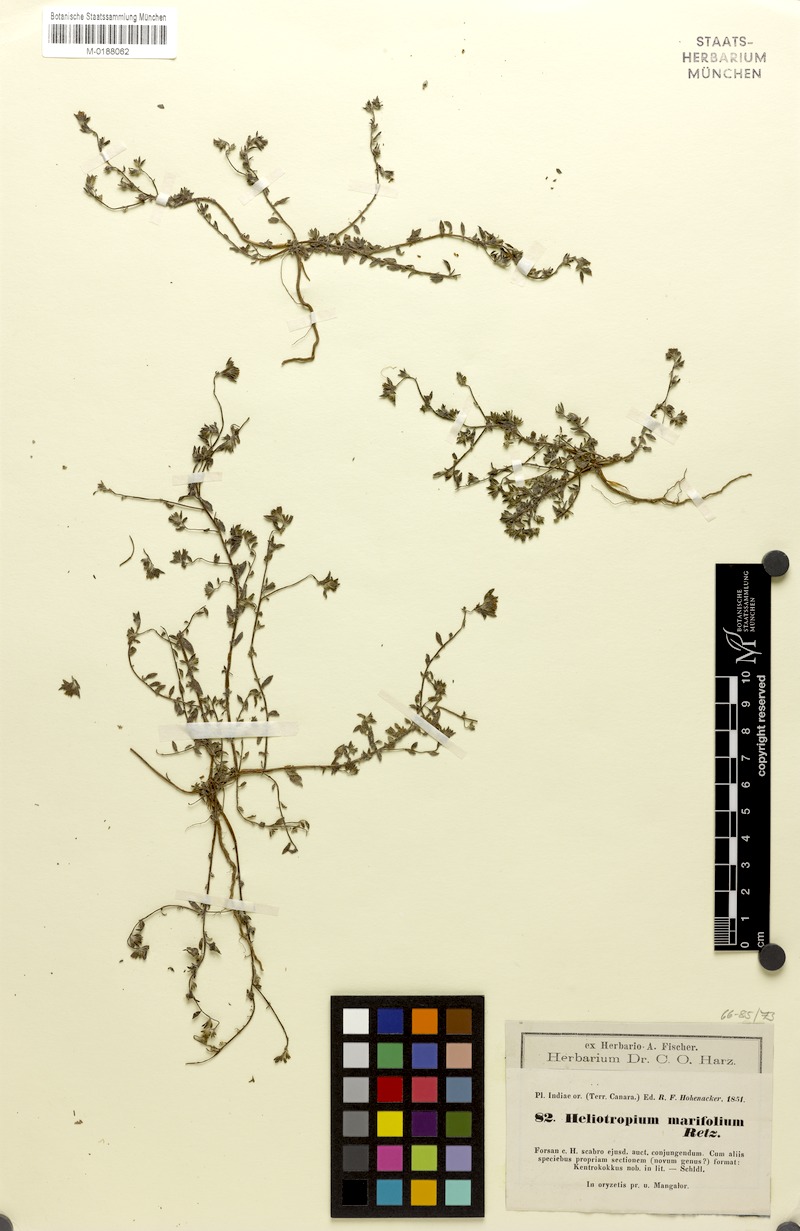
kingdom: Plantae
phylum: Tracheophyta
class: Magnoliopsida
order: Boraginales
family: Heliotropiaceae
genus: Euploca
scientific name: Euploca marifolia
